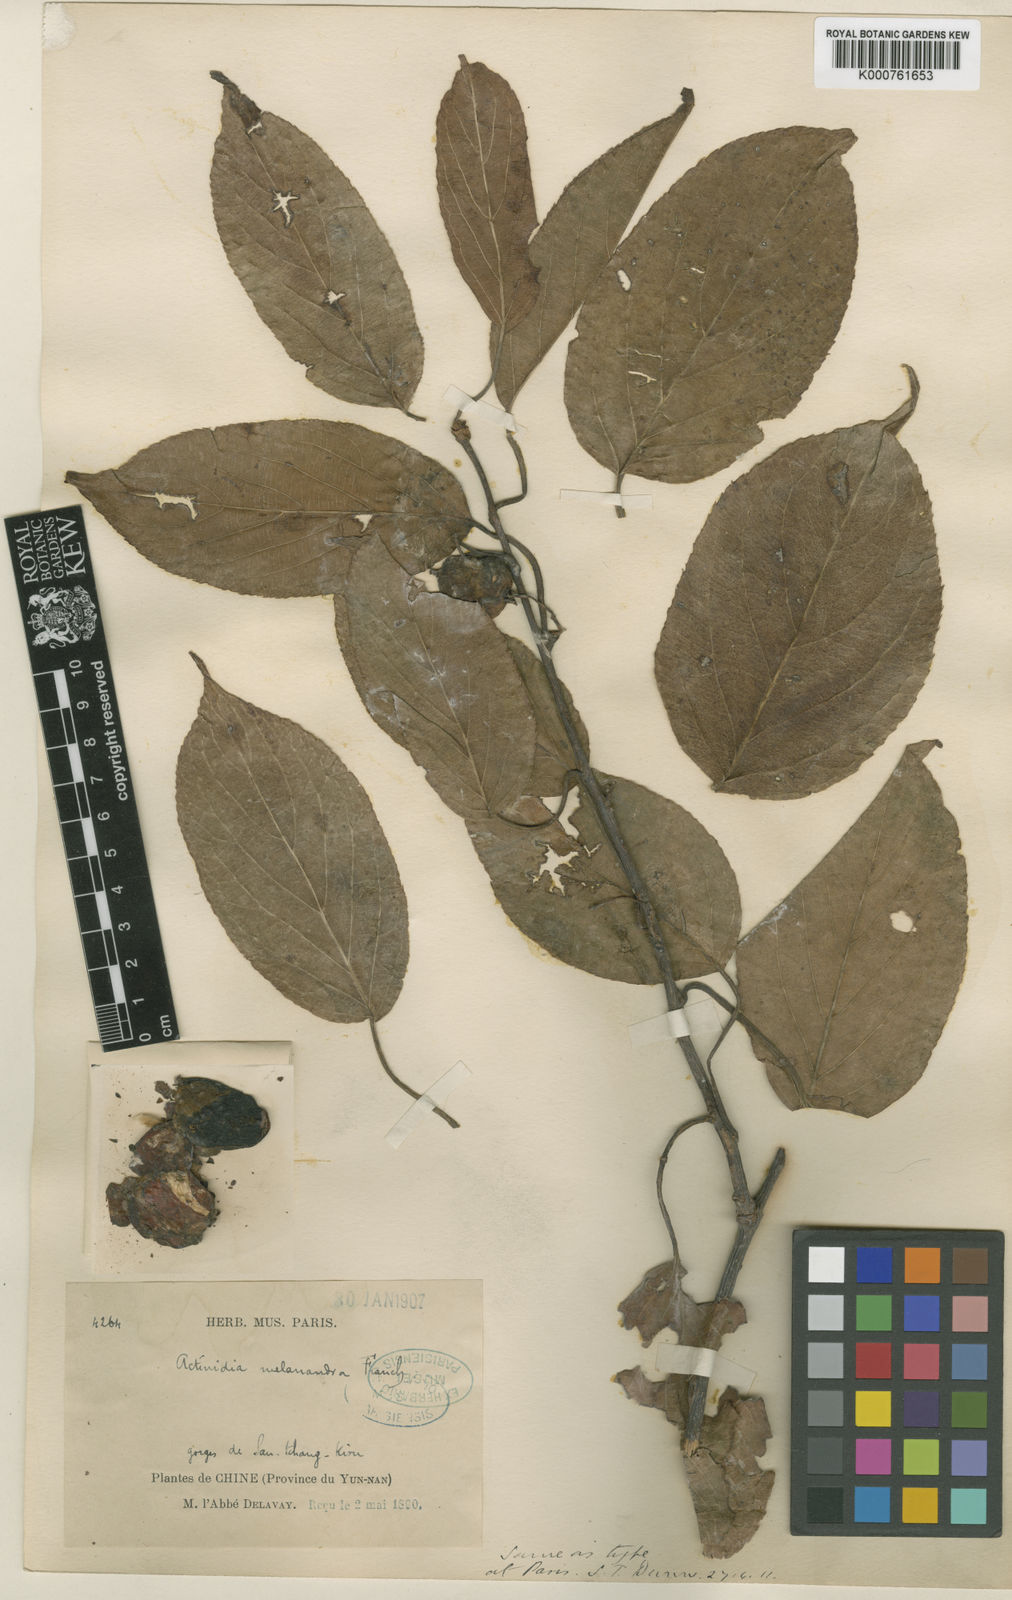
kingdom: Plantae
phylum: Tracheophyta
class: Magnoliopsida
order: Ericales
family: Actinidiaceae
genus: Actinidia
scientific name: Actinidia melanandra
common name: Red kiwi
